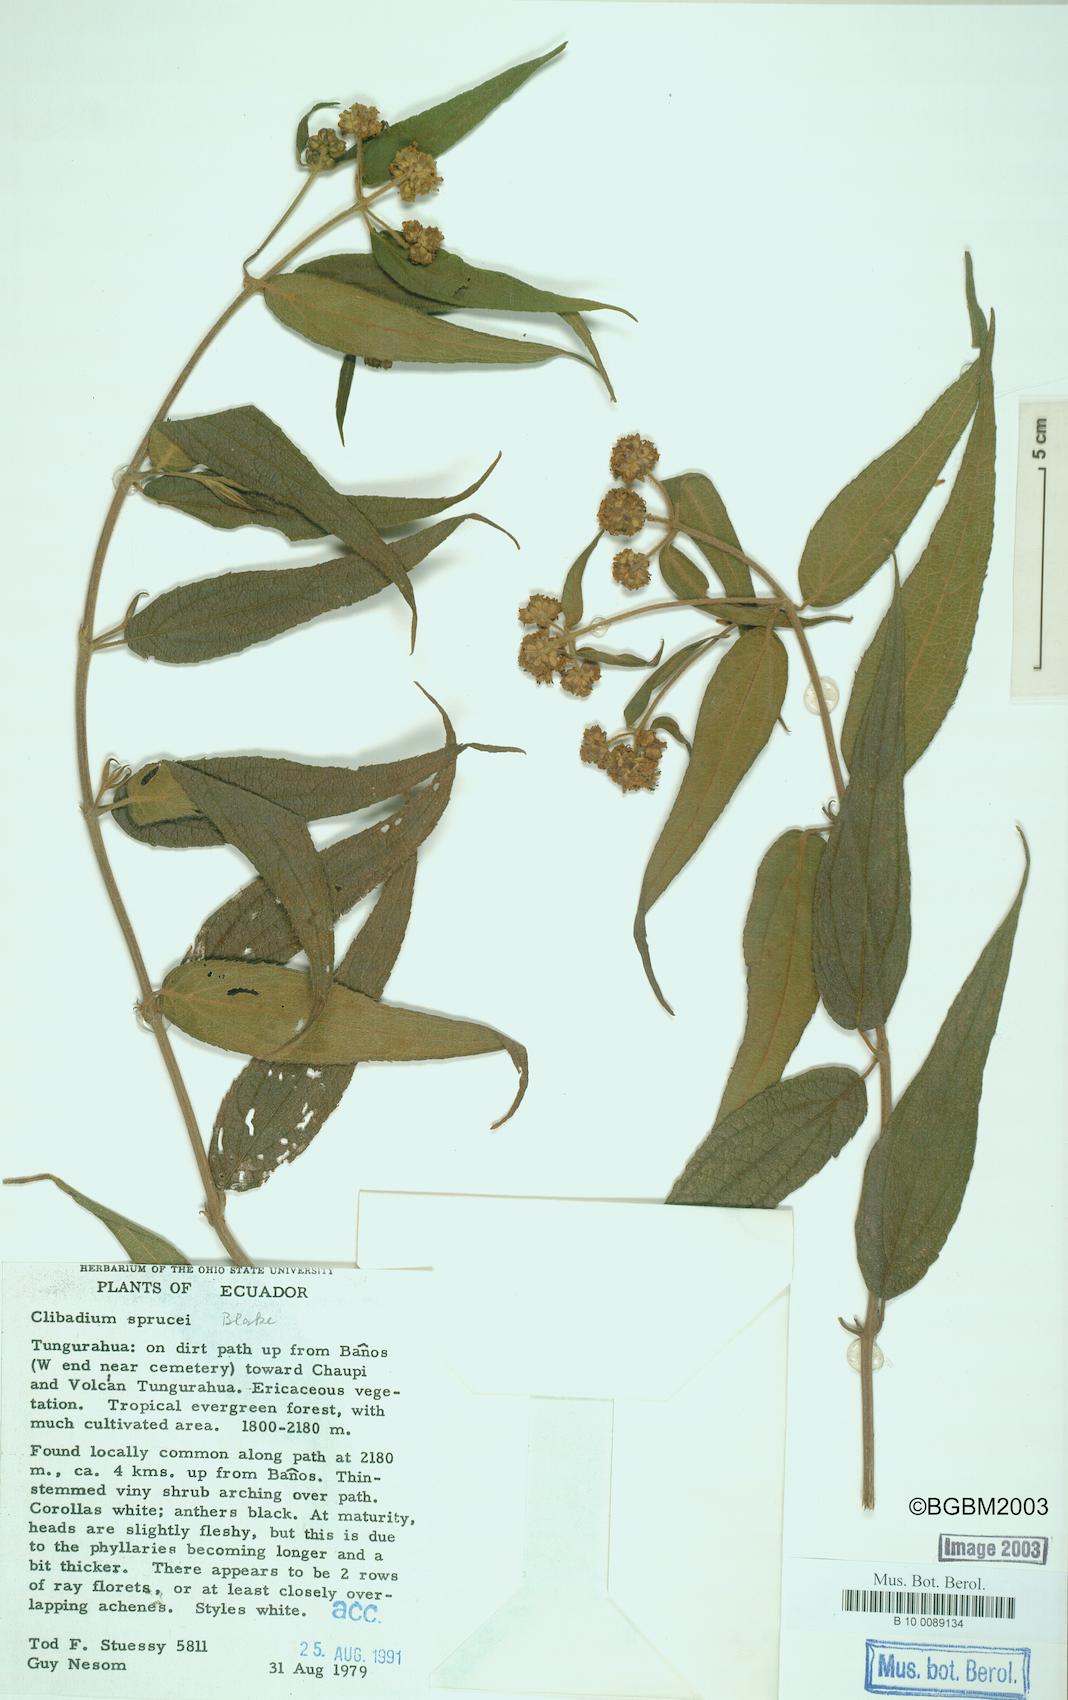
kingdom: Plantae
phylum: Tracheophyta
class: Magnoliopsida
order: Asterales
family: Asteraceae
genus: Clibadium
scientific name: Clibadium sprucei
